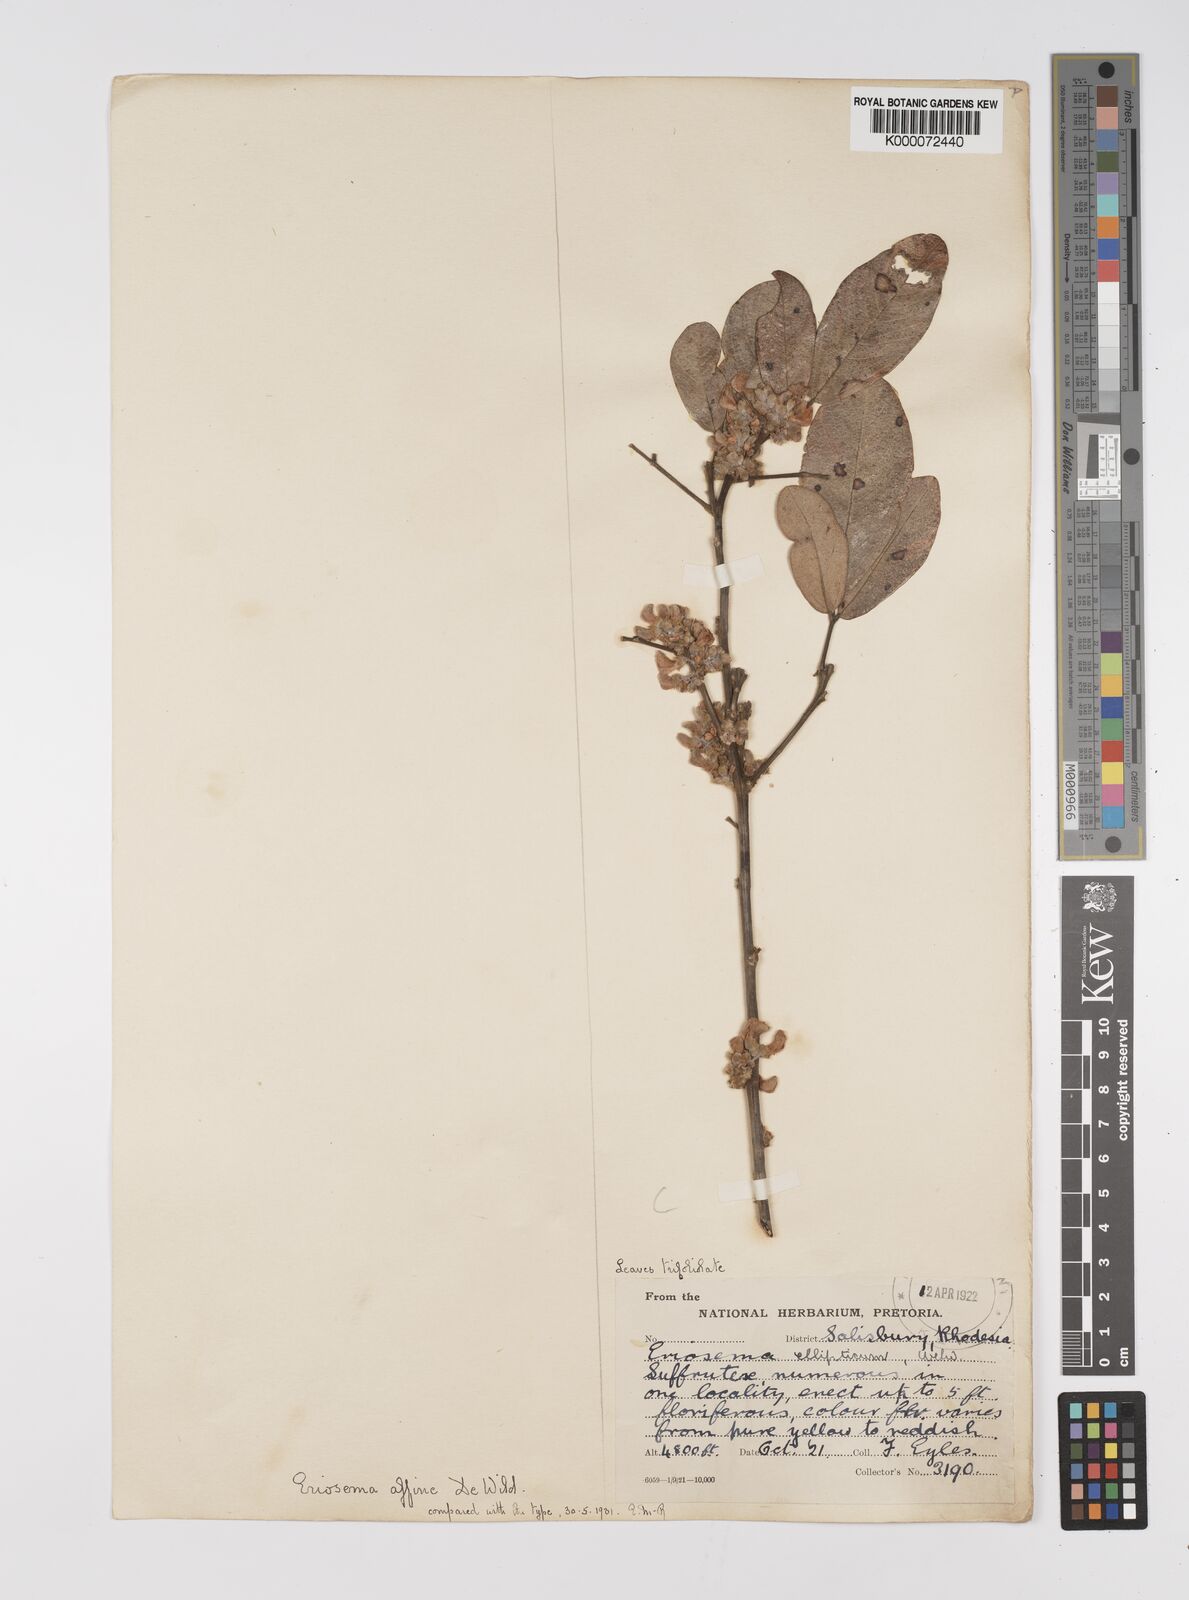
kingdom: Plantae
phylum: Tracheophyta
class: Magnoliopsida
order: Fabales
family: Fabaceae
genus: Eriosema
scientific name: Eriosema affine
